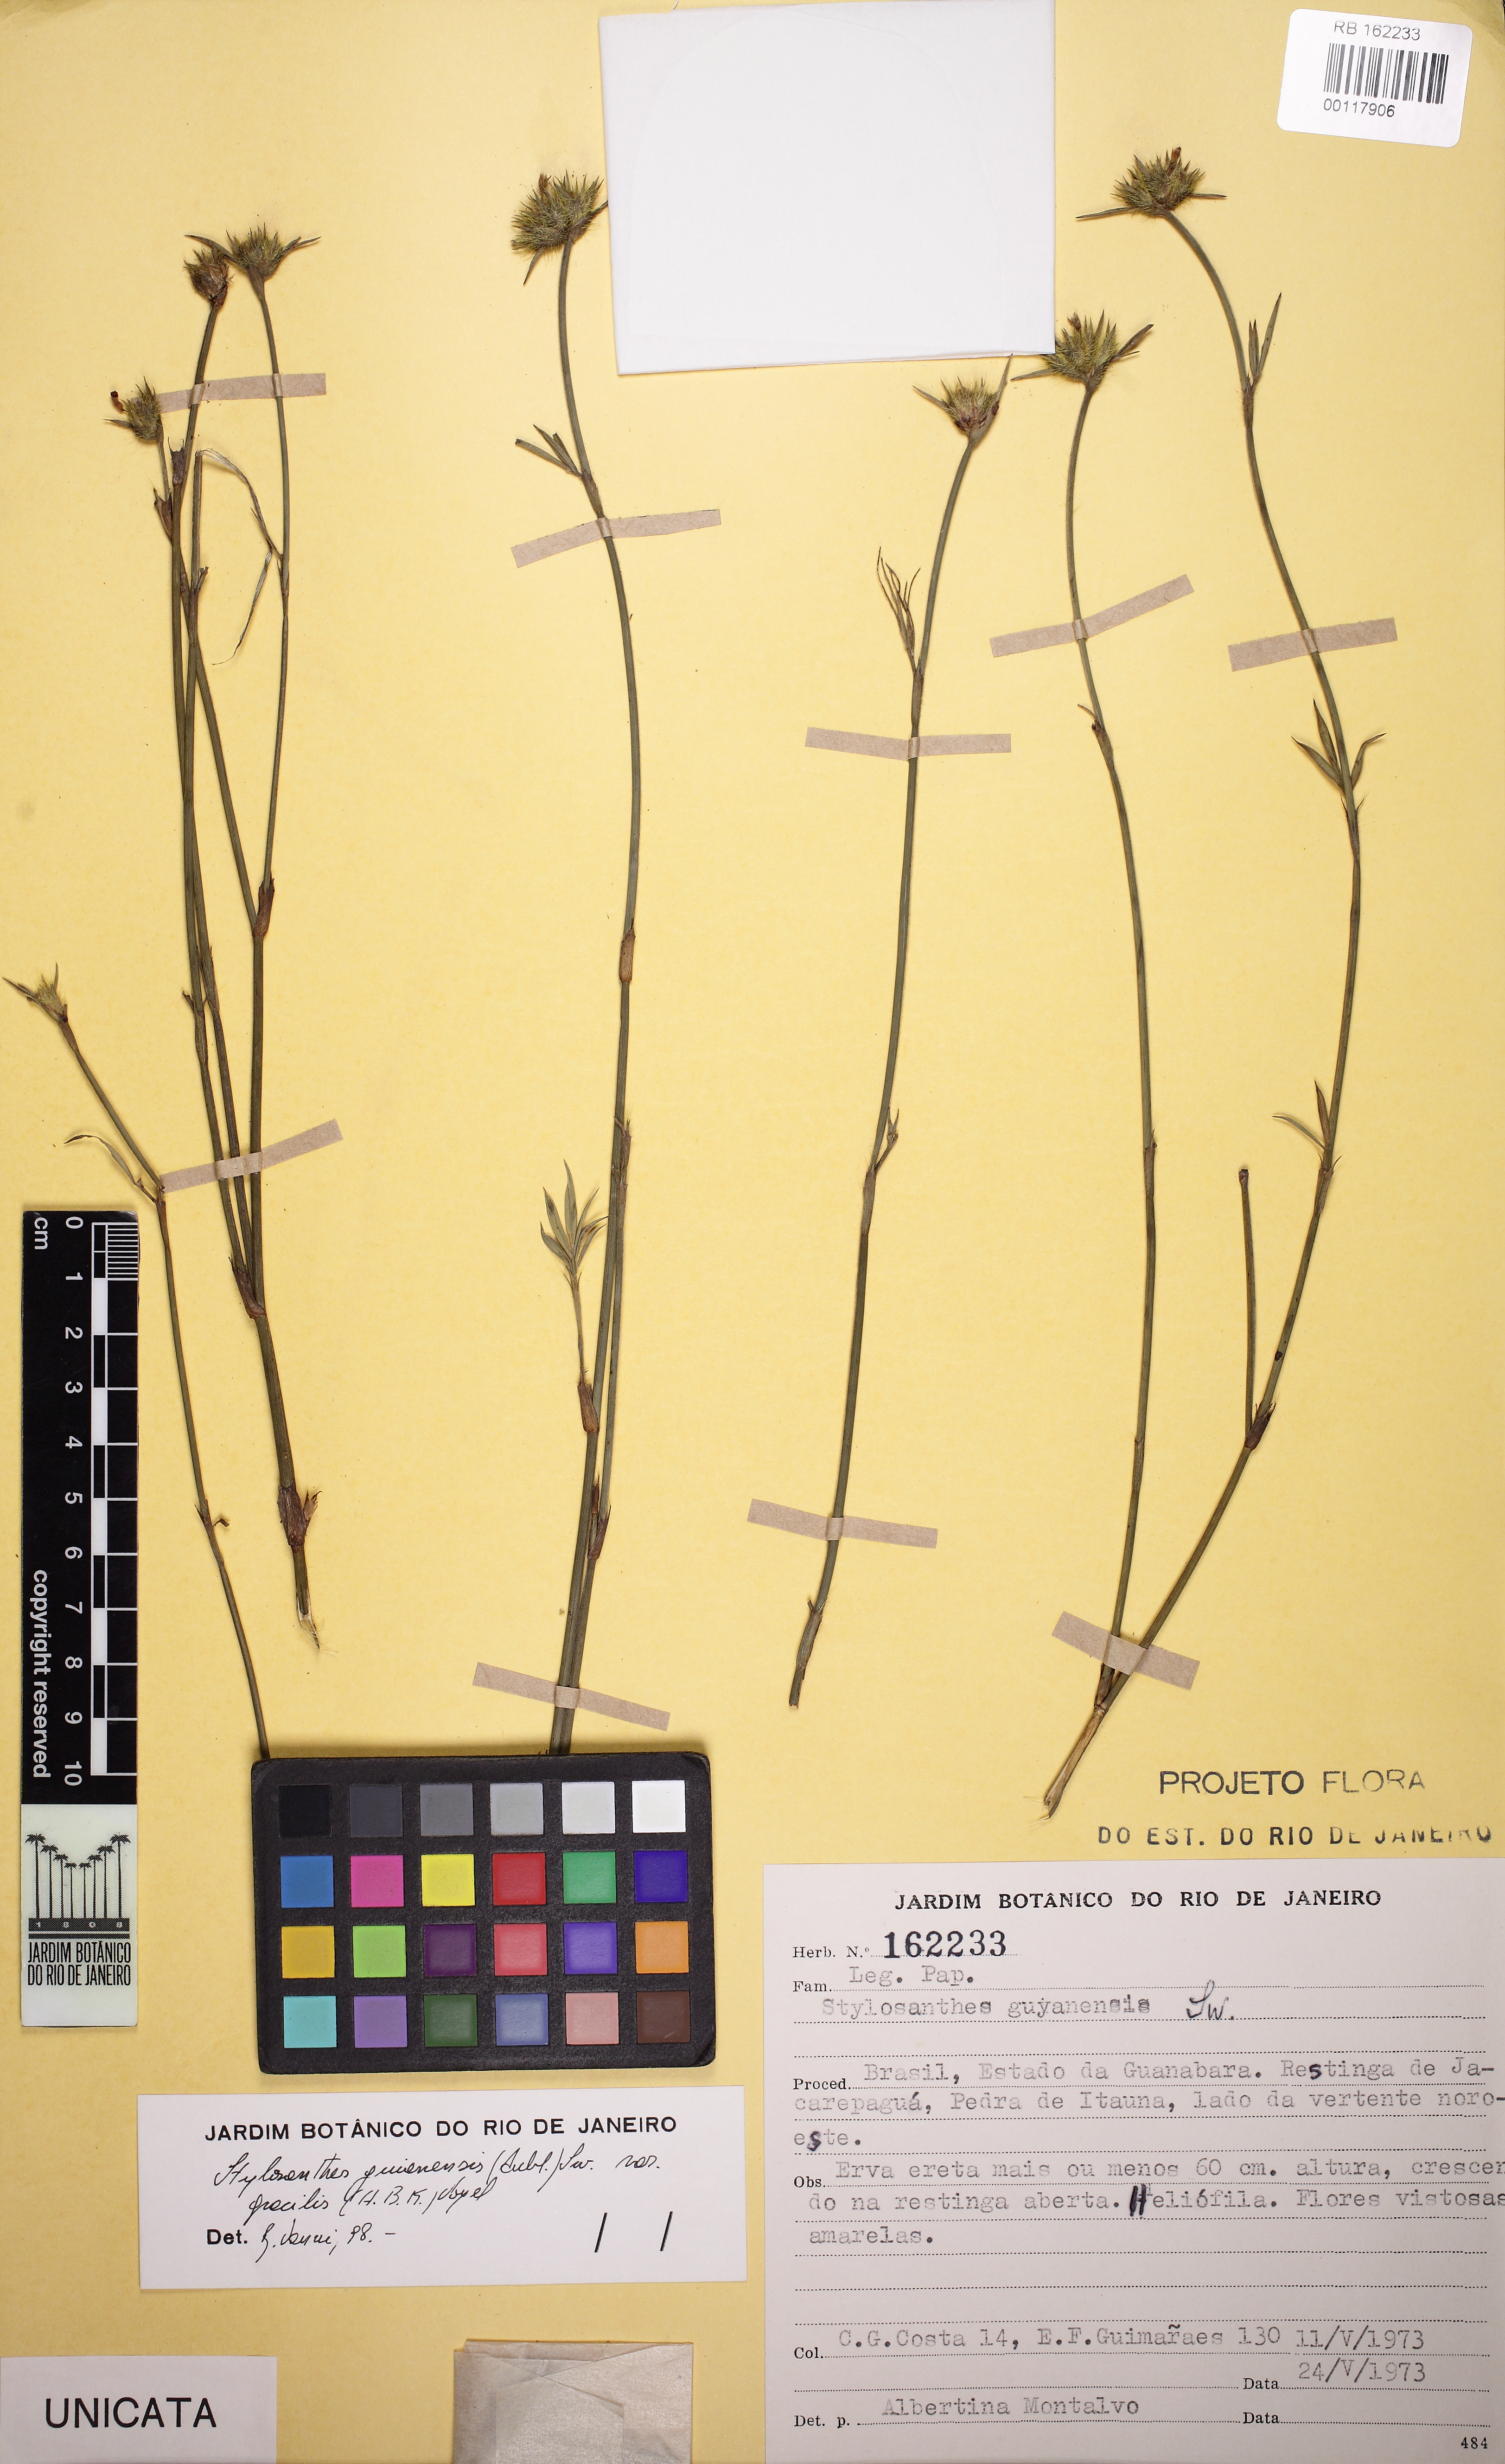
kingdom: Plantae
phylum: Tracheophyta
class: Magnoliopsida
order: Fabales
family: Fabaceae
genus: Stylosanthes
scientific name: Stylosanthes guianensis
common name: Pencil flower
